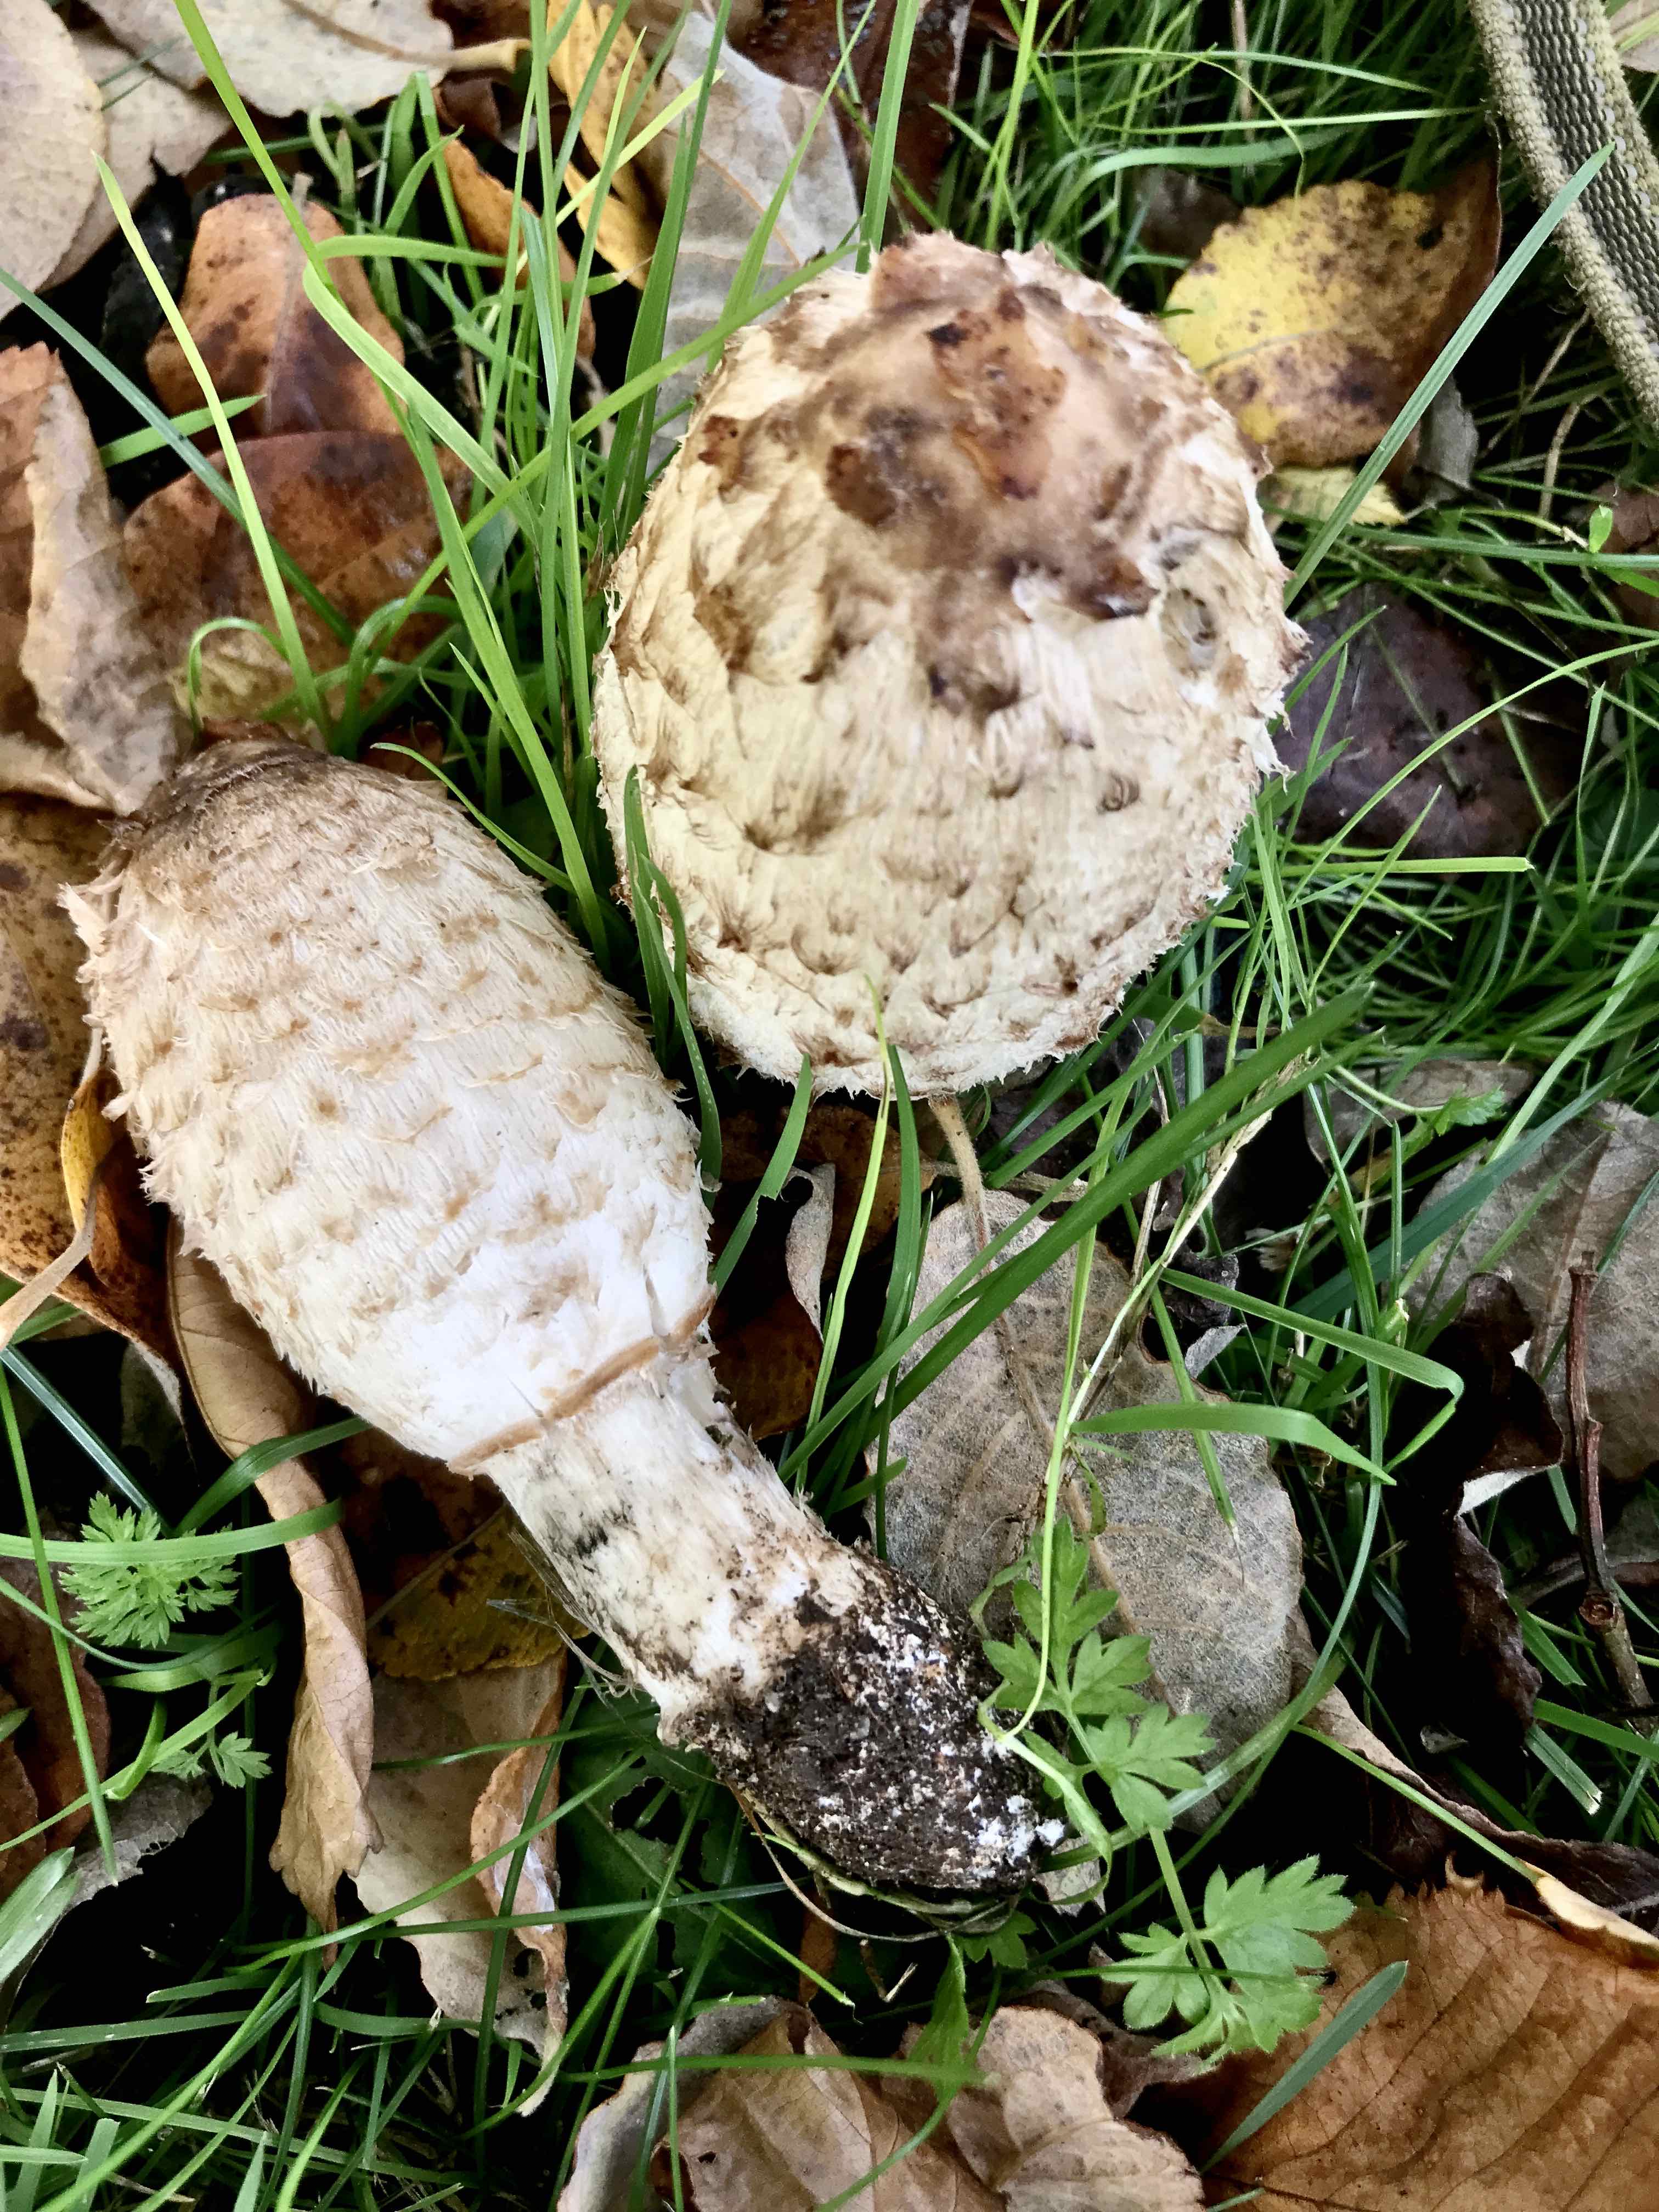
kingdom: Fungi
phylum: Basidiomycota
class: Agaricomycetes
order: Agaricales
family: Agaricaceae
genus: Coprinus
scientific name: Coprinus comatus
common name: stor parykhat
